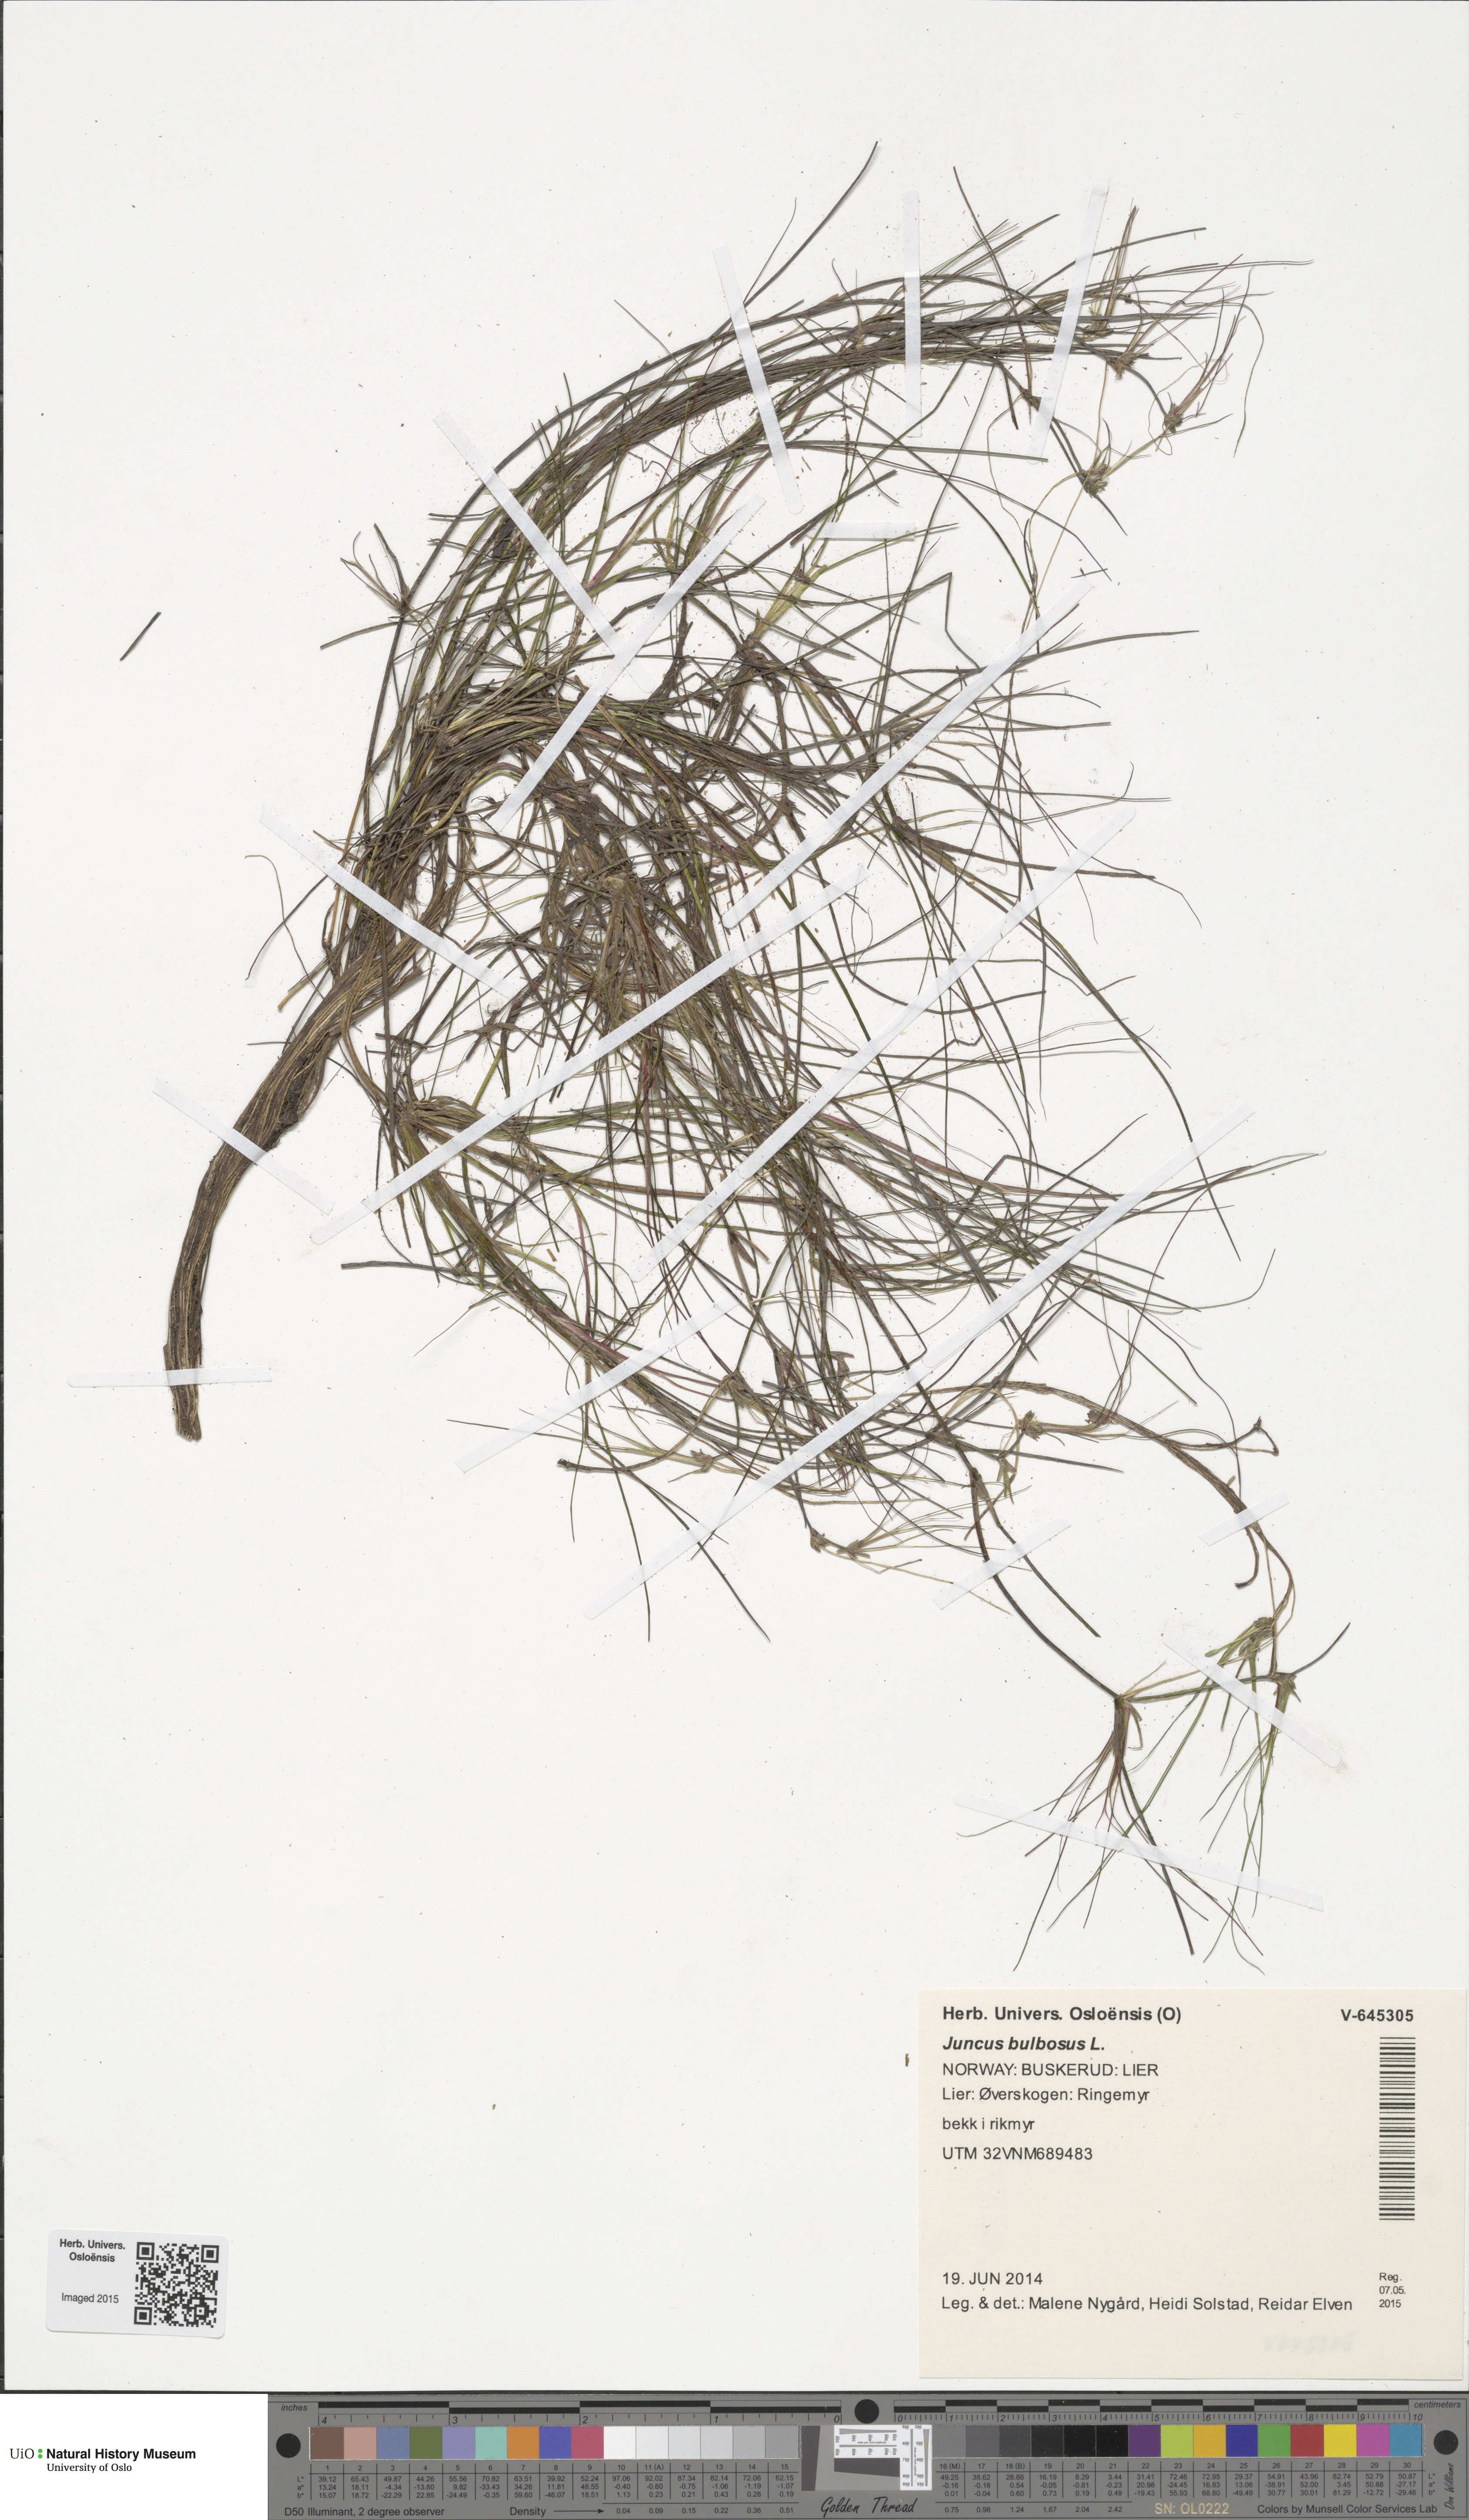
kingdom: Plantae
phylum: Tracheophyta
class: Liliopsida
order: Poales
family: Juncaceae
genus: Juncus
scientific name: Juncus bulbosus
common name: Bulbous rush
